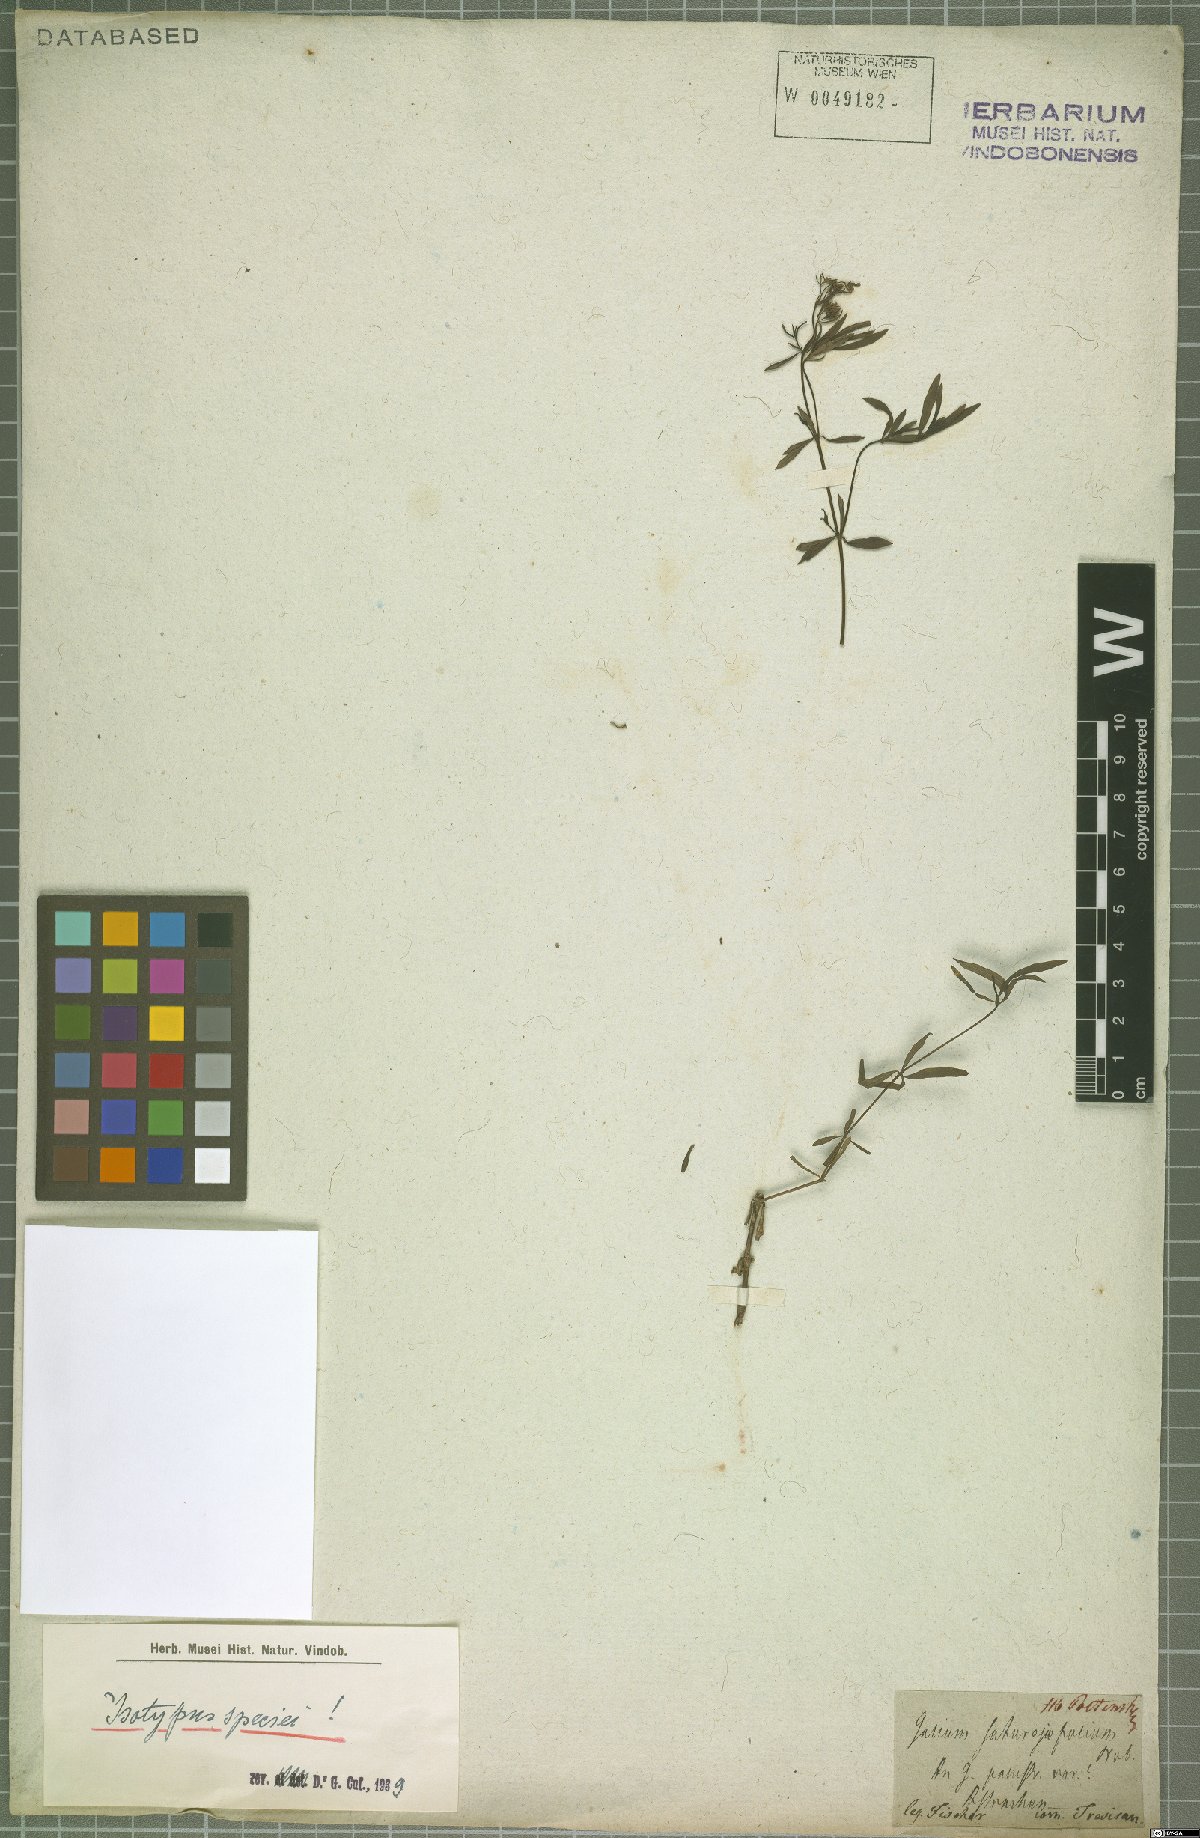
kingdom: Plantae
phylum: Tracheophyta
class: Magnoliopsida
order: Gentianales
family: Rubiaceae
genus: Galium
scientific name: Galium saturejifolium
